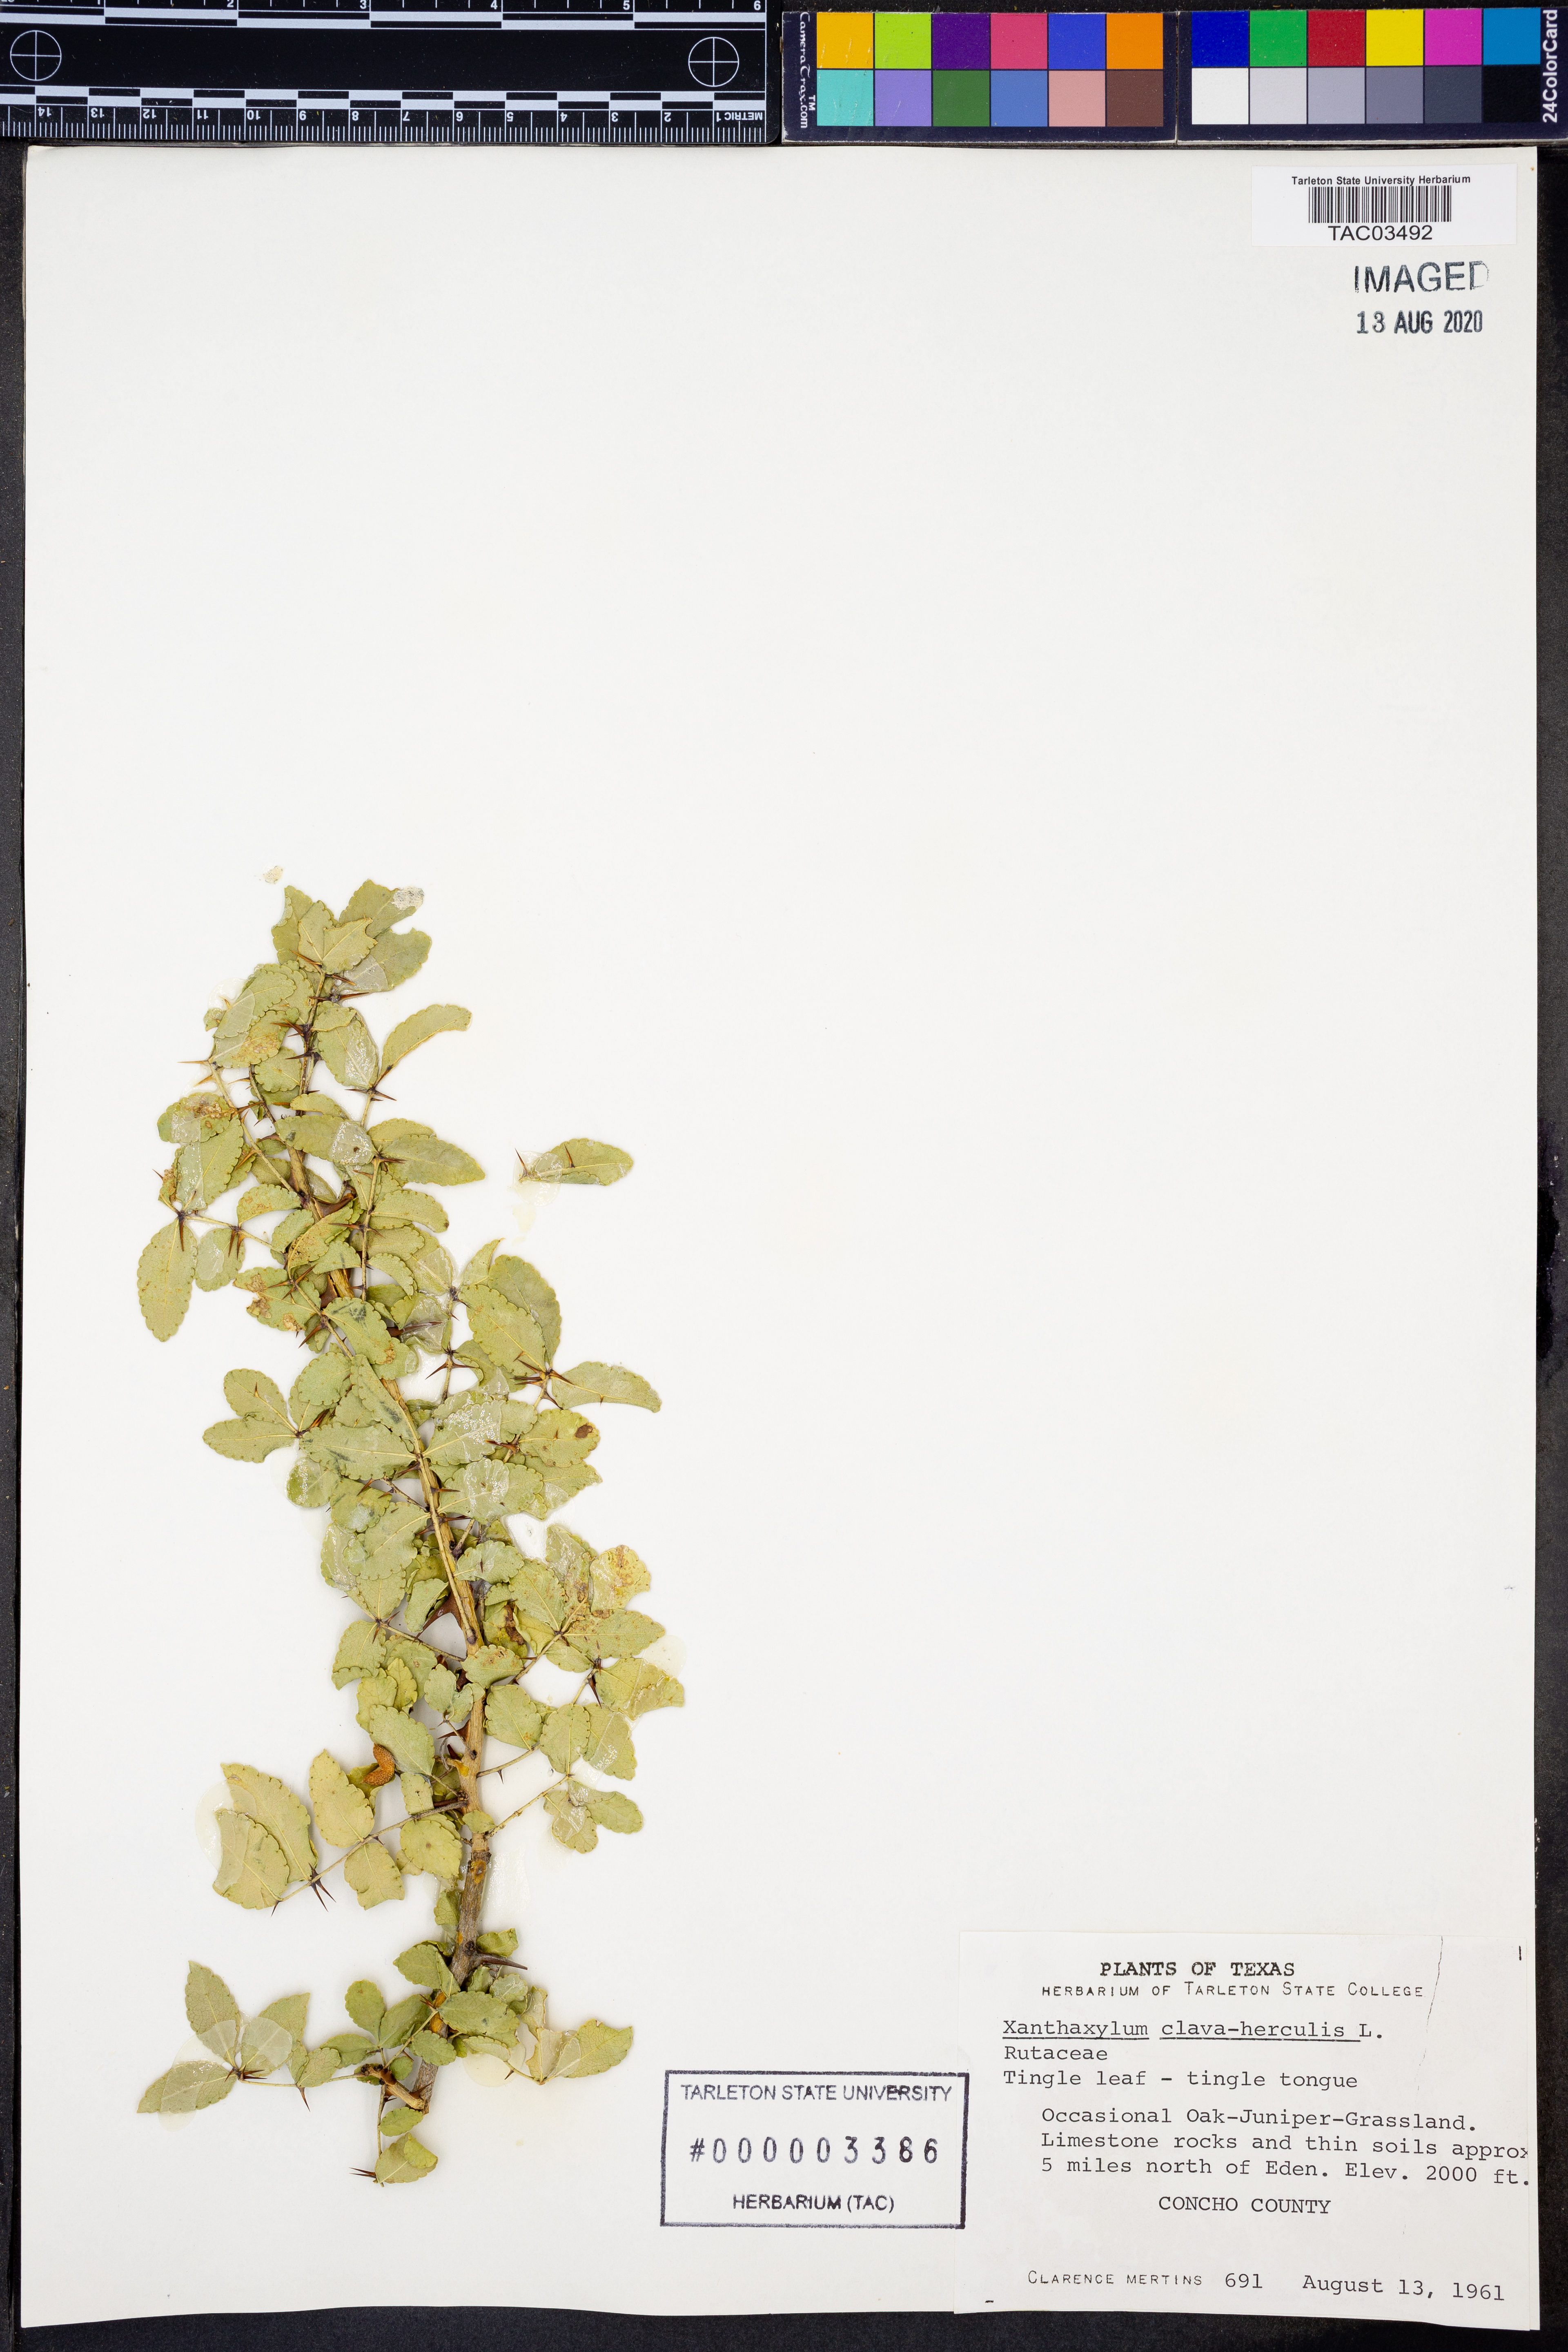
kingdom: Plantae
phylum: Tracheophyta
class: Magnoliopsida
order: Sapindales
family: Rutaceae
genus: Zanthoxylum
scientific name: Zanthoxylum avicennae
